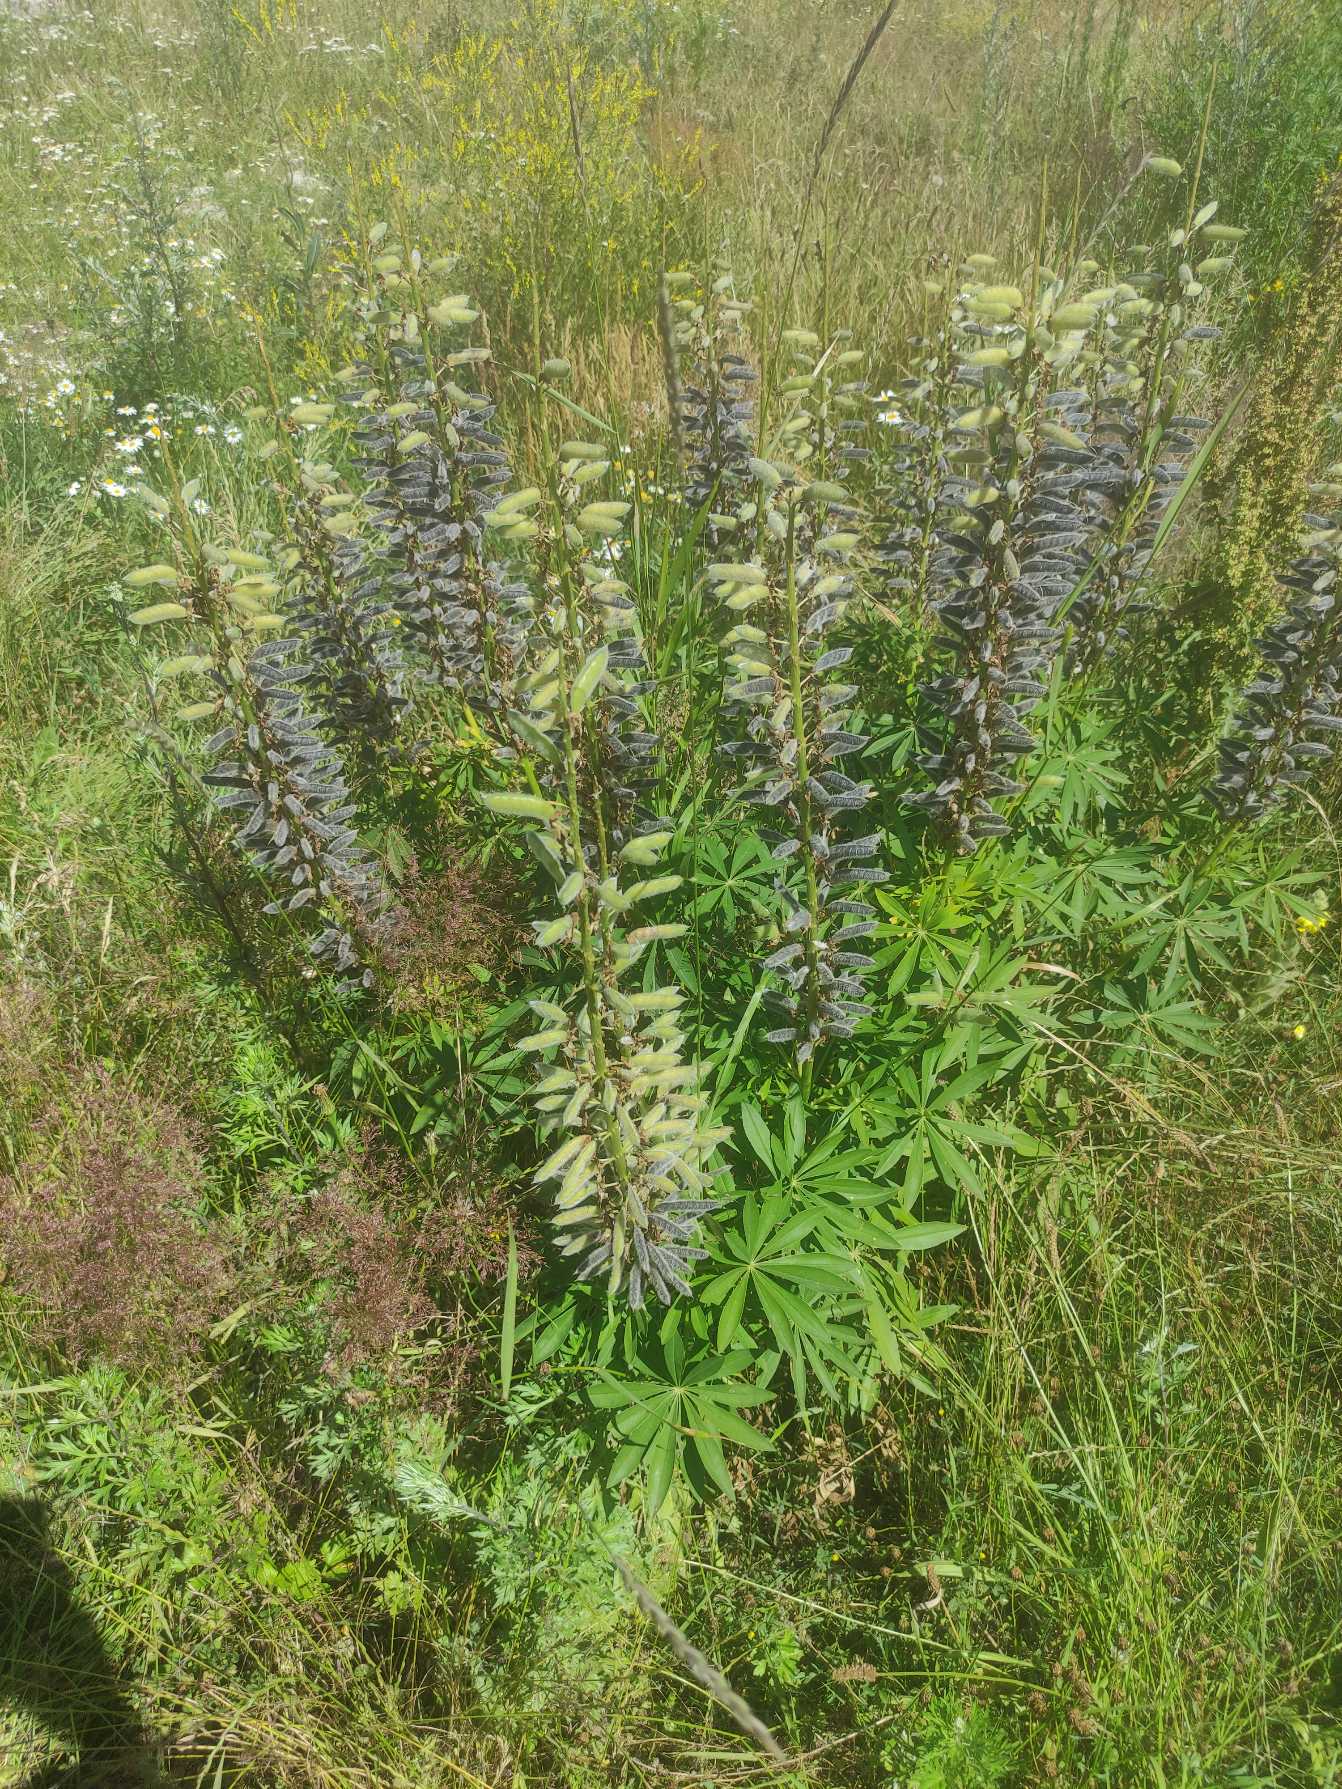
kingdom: Plantae
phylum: Tracheophyta
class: Magnoliopsida
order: Fabales
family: Fabaceae
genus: Lupinus
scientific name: Lupinus polyphyllus
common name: Mangebladet lupin
